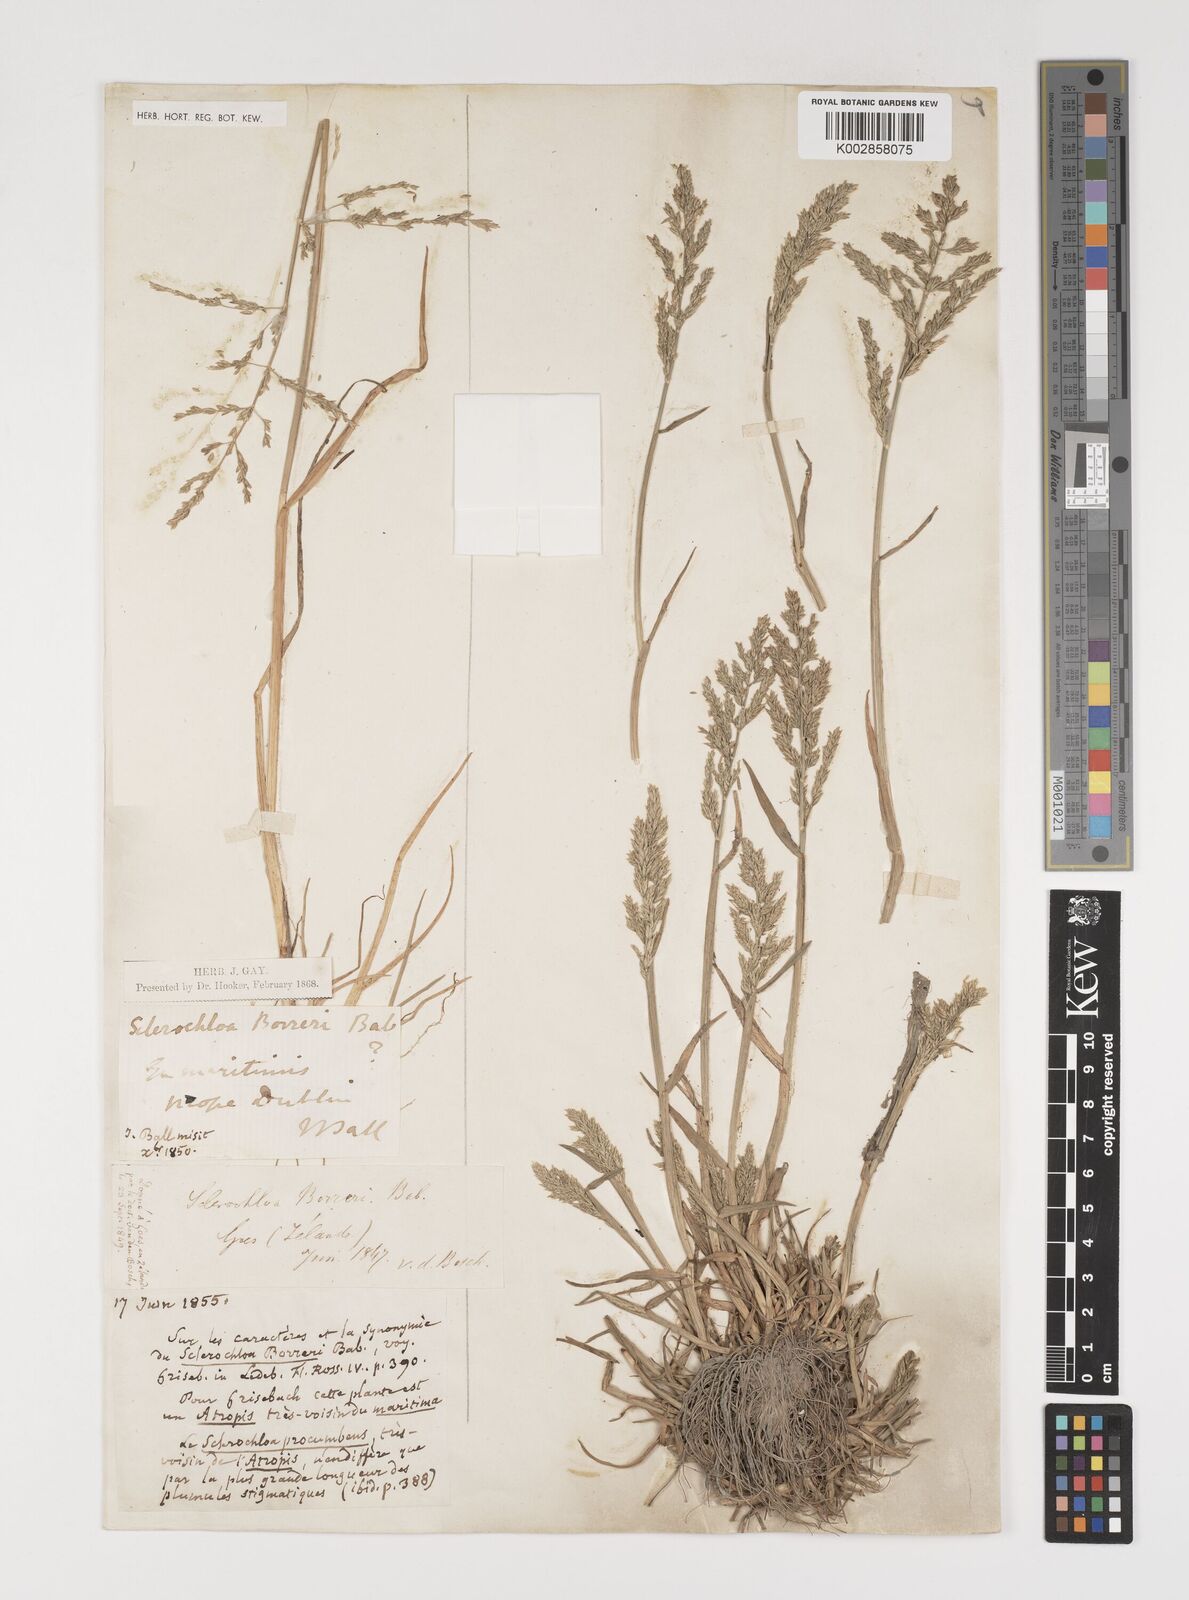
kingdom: Plantae
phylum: Tracheophyta
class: Liliopsida
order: Poales
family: Poaceae
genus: Puccinellia
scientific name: Puccinellia rupestris
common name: Stiff saltmarsh-grass
